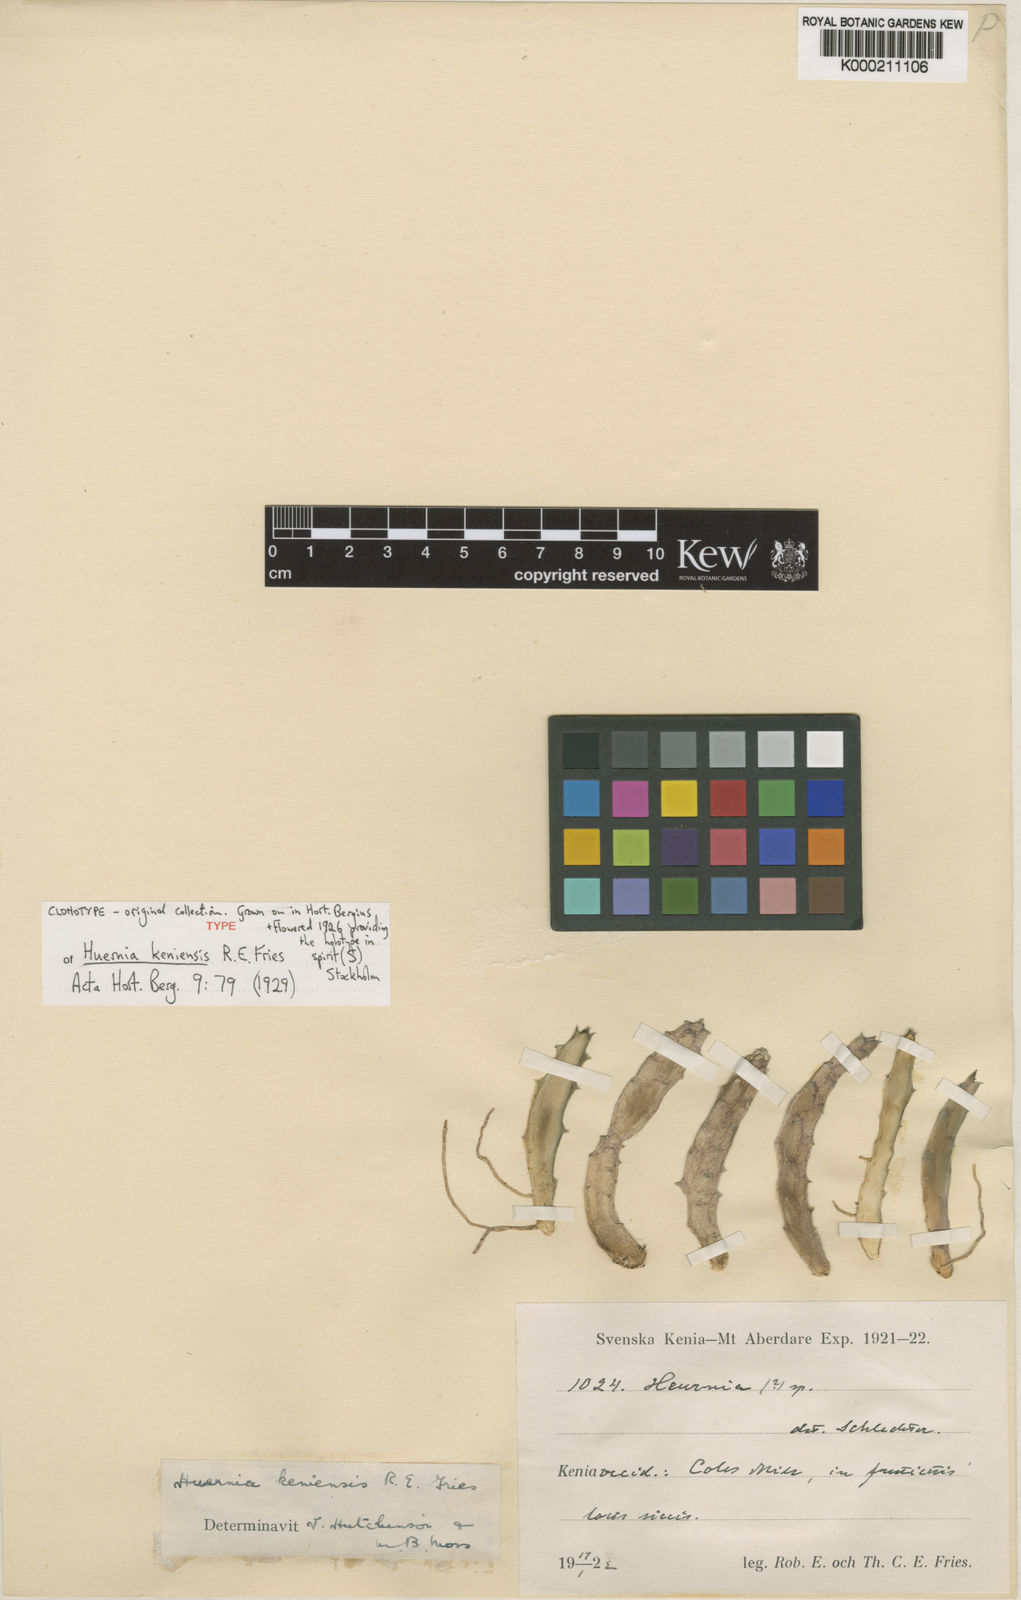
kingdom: Plantae
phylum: Tracheophyta
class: Magnoliopsida
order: Gentianales
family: Apocynaceae
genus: Ceropegia
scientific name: Ceropegia lenewtonii
